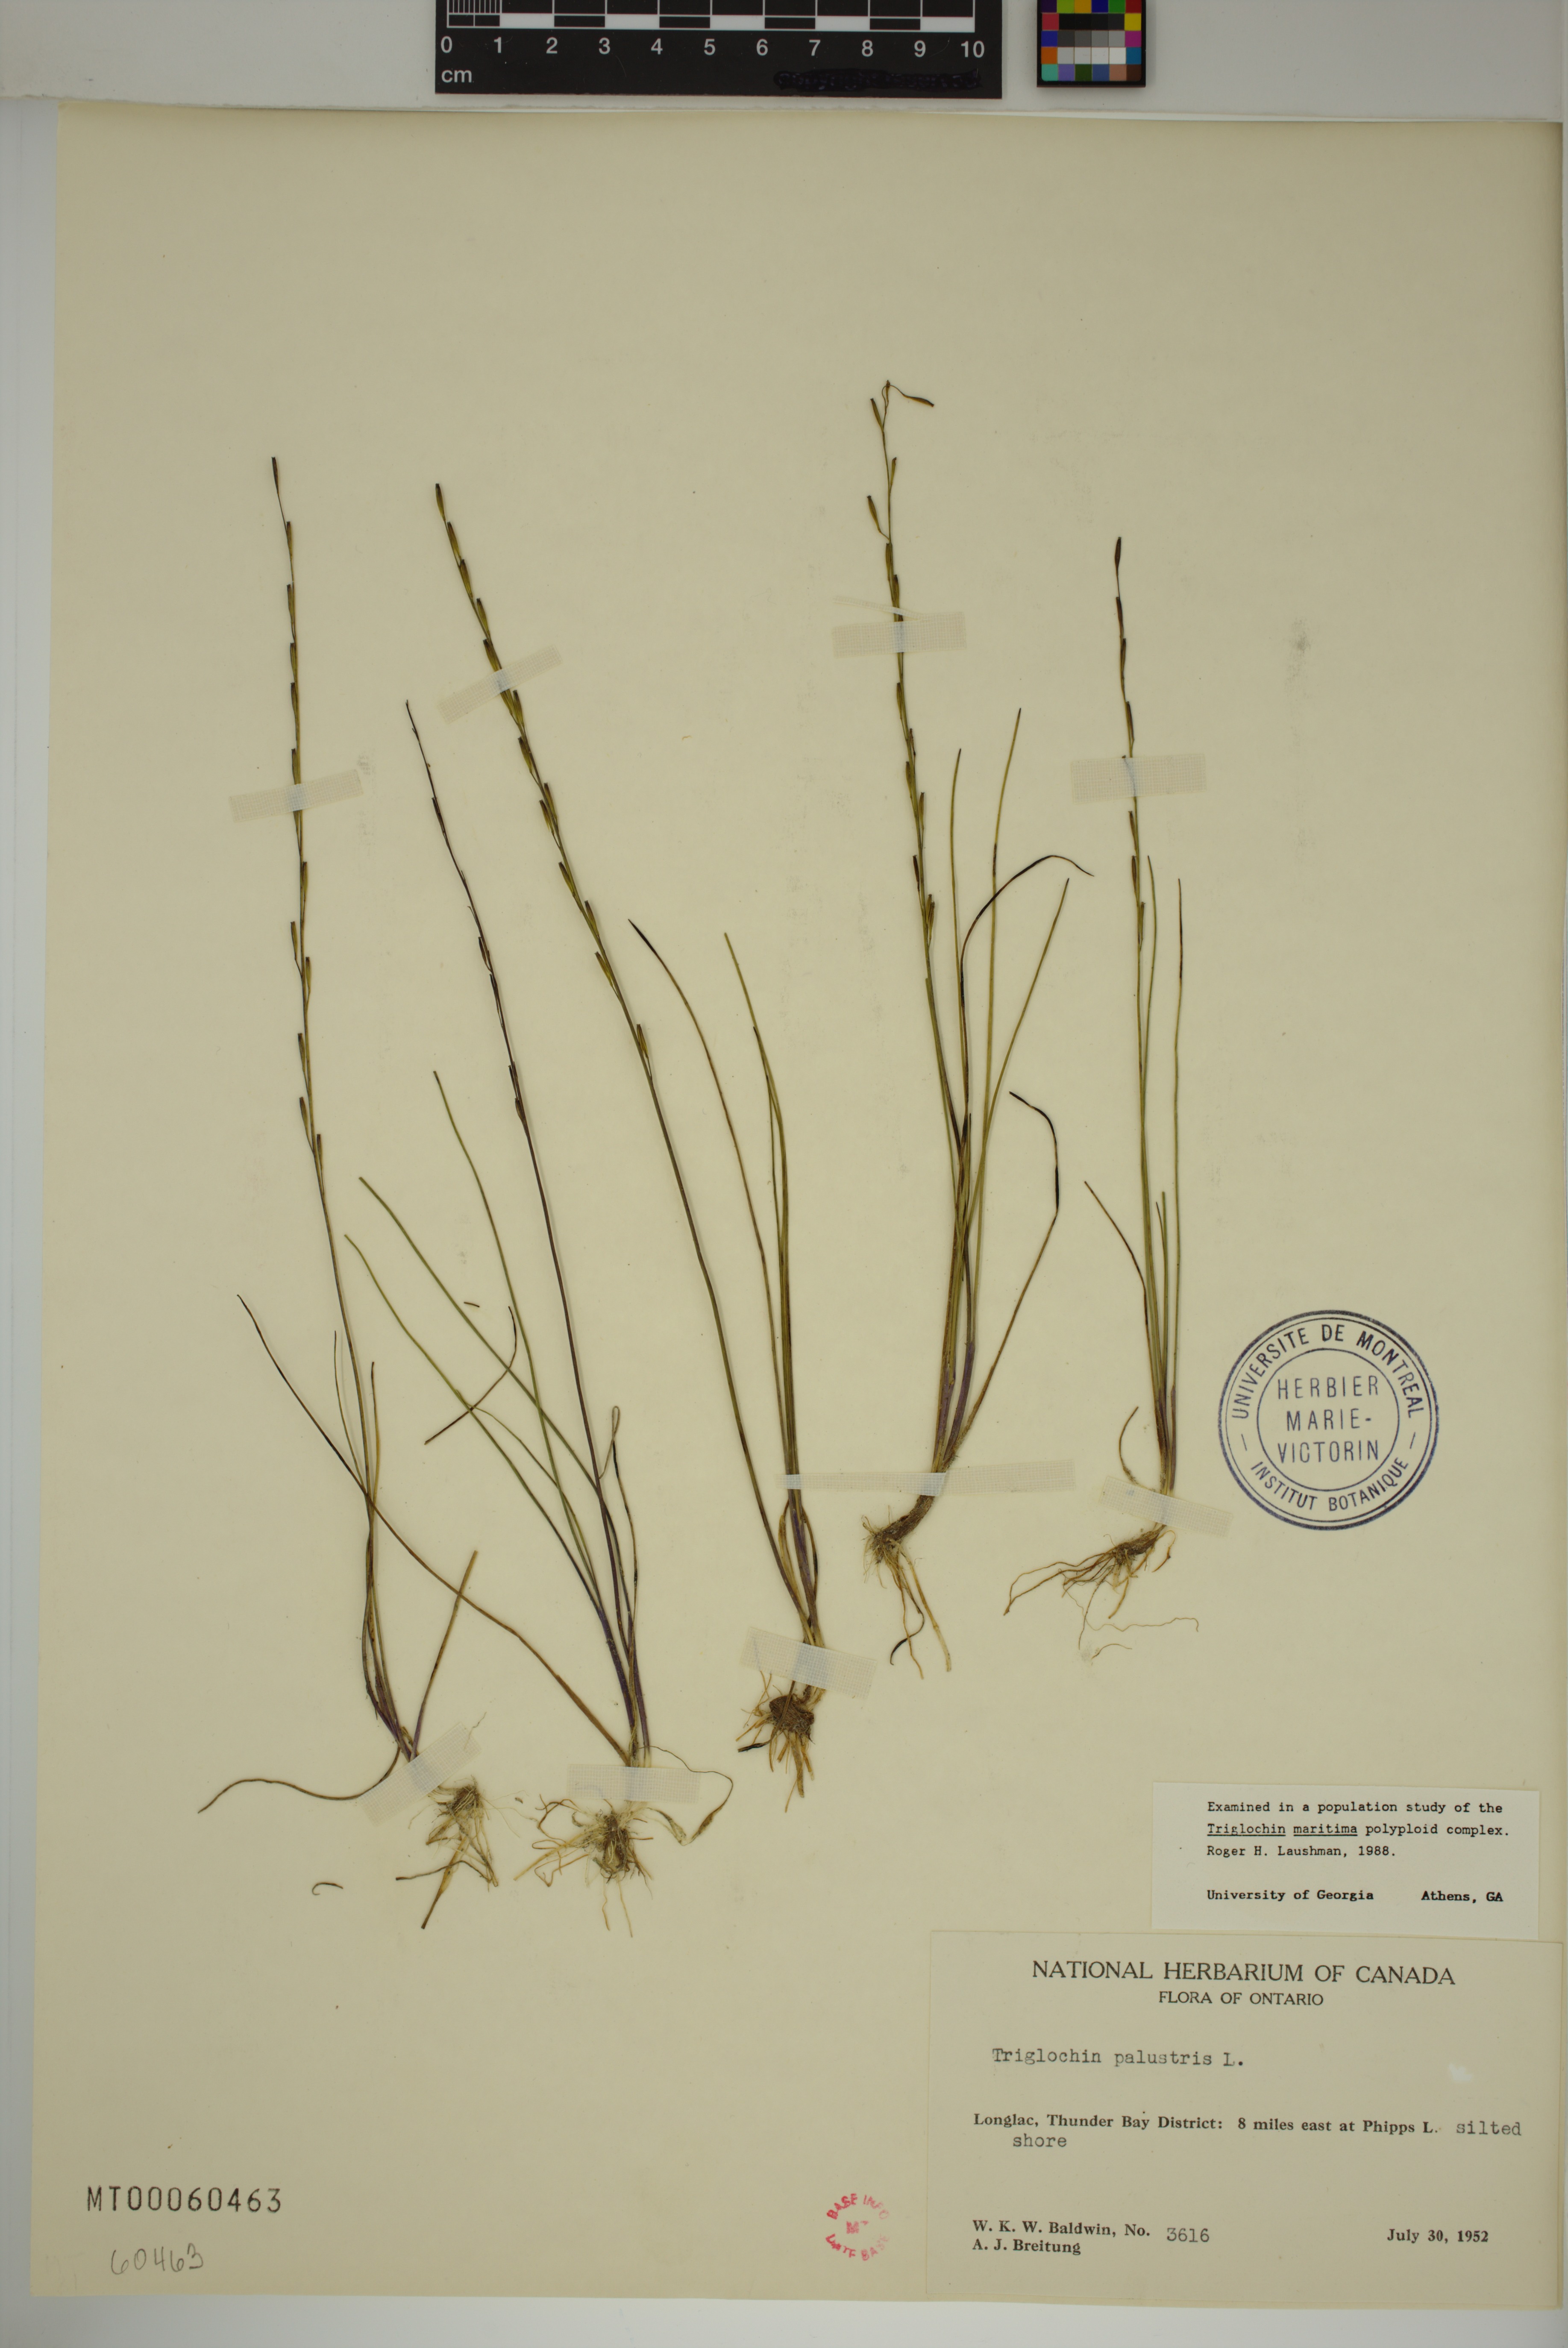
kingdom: Plantae
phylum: Tracheophyta
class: Liliopsida
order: Alismatales
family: Juncaginaceae
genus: Triglochin
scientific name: Triglochin palustris
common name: Marsh arrowgrass
